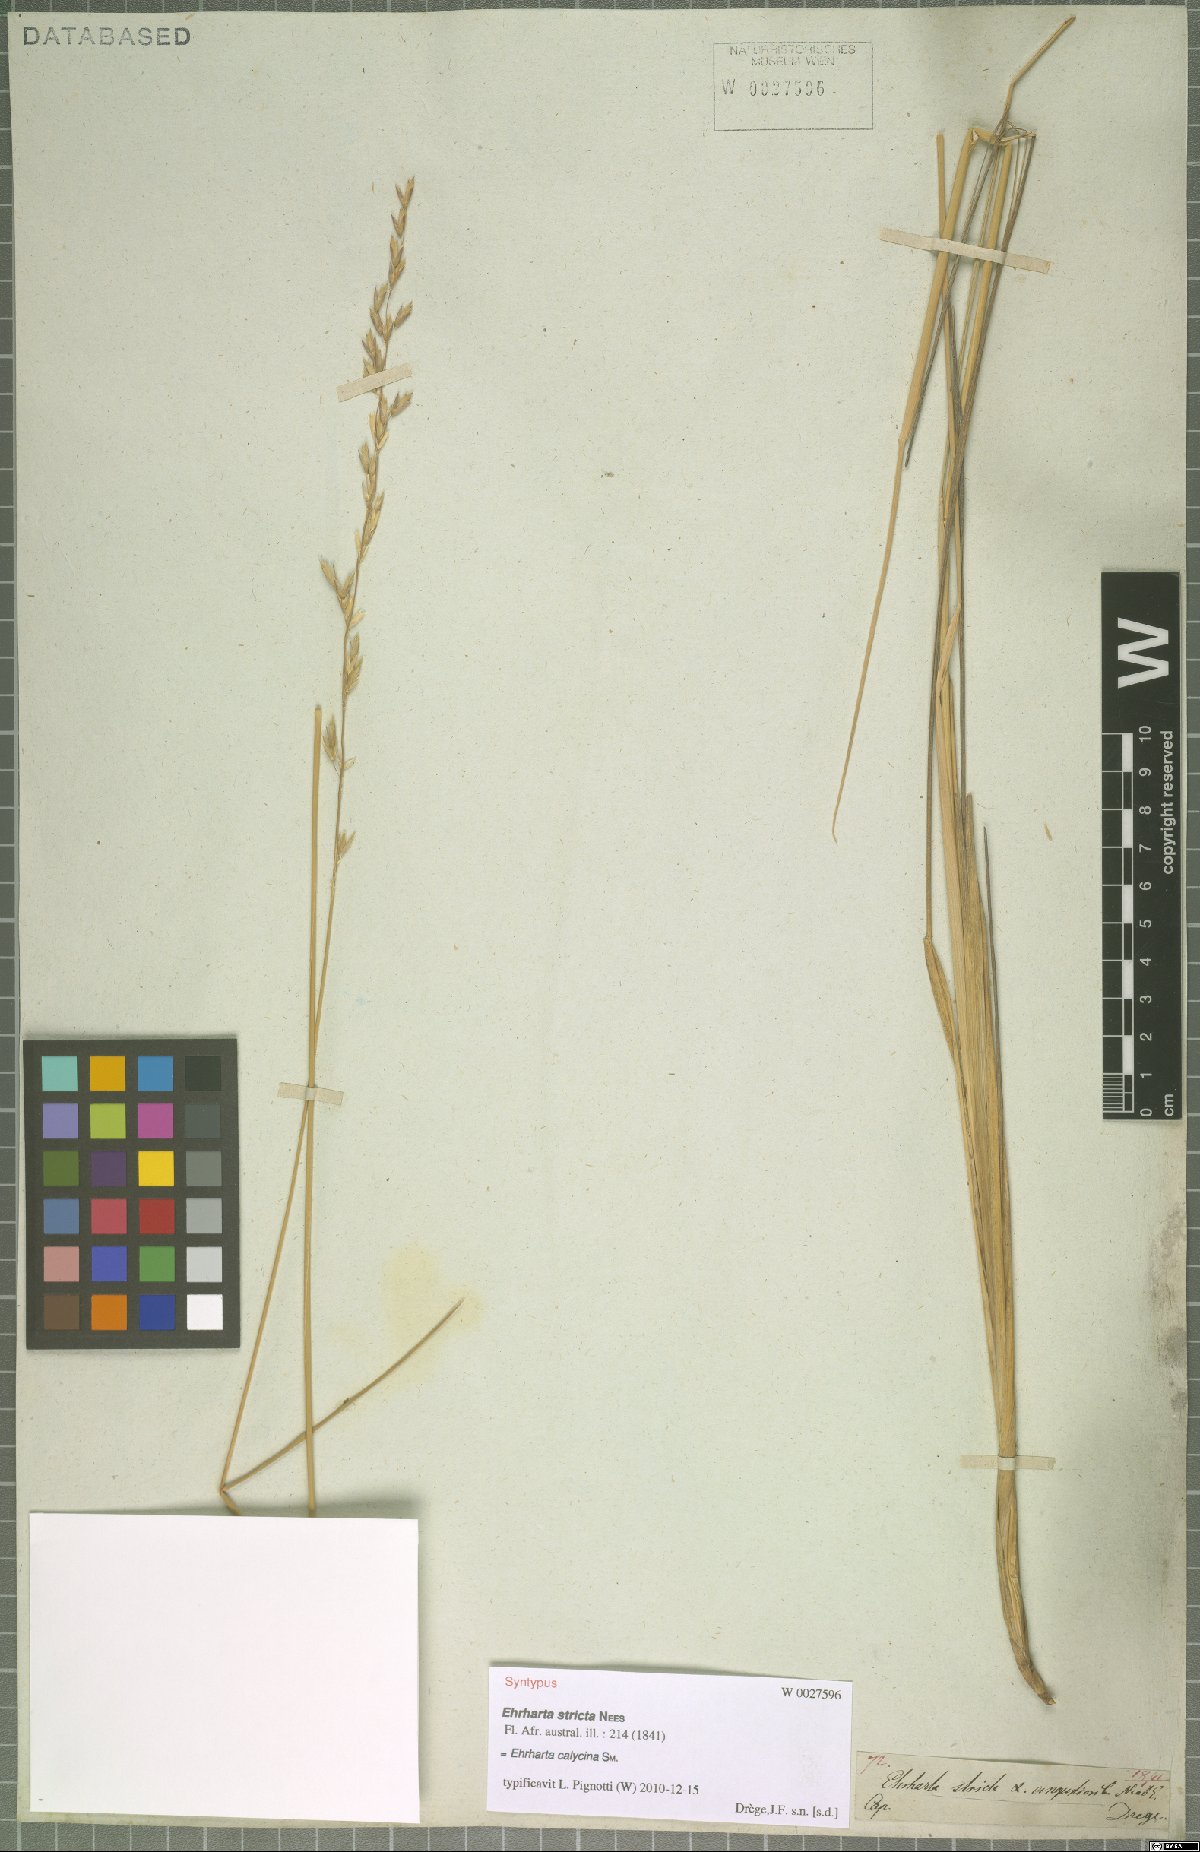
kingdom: Plantae
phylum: Tracheophyta
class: Liliopsida
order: Poales
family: Poaceae
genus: Ehrharta
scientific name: Ehrharta calycina
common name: Perennial veldtgrass
